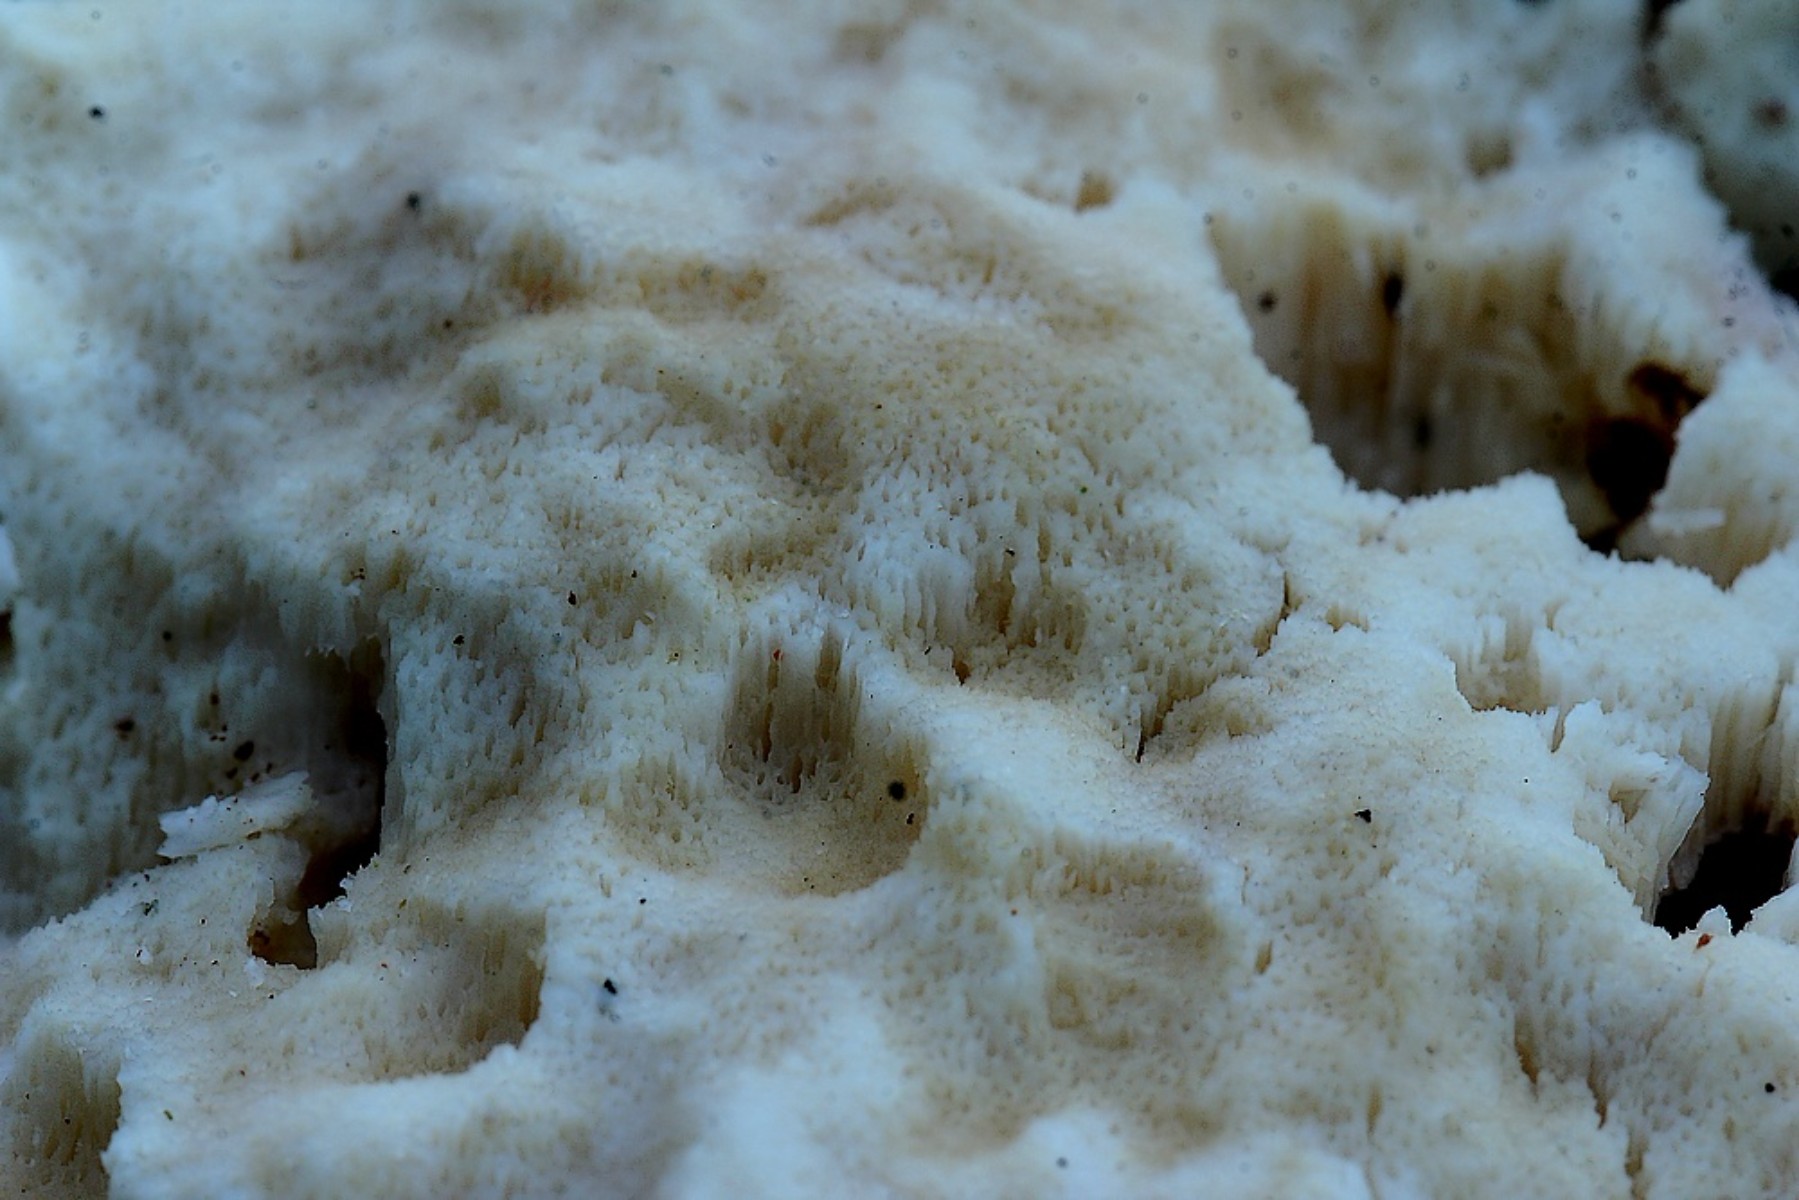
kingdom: Fungi
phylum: Basidiomycota
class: Agaricomycetes
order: Polyporales
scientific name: Polyporales
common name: poresvampordenen
